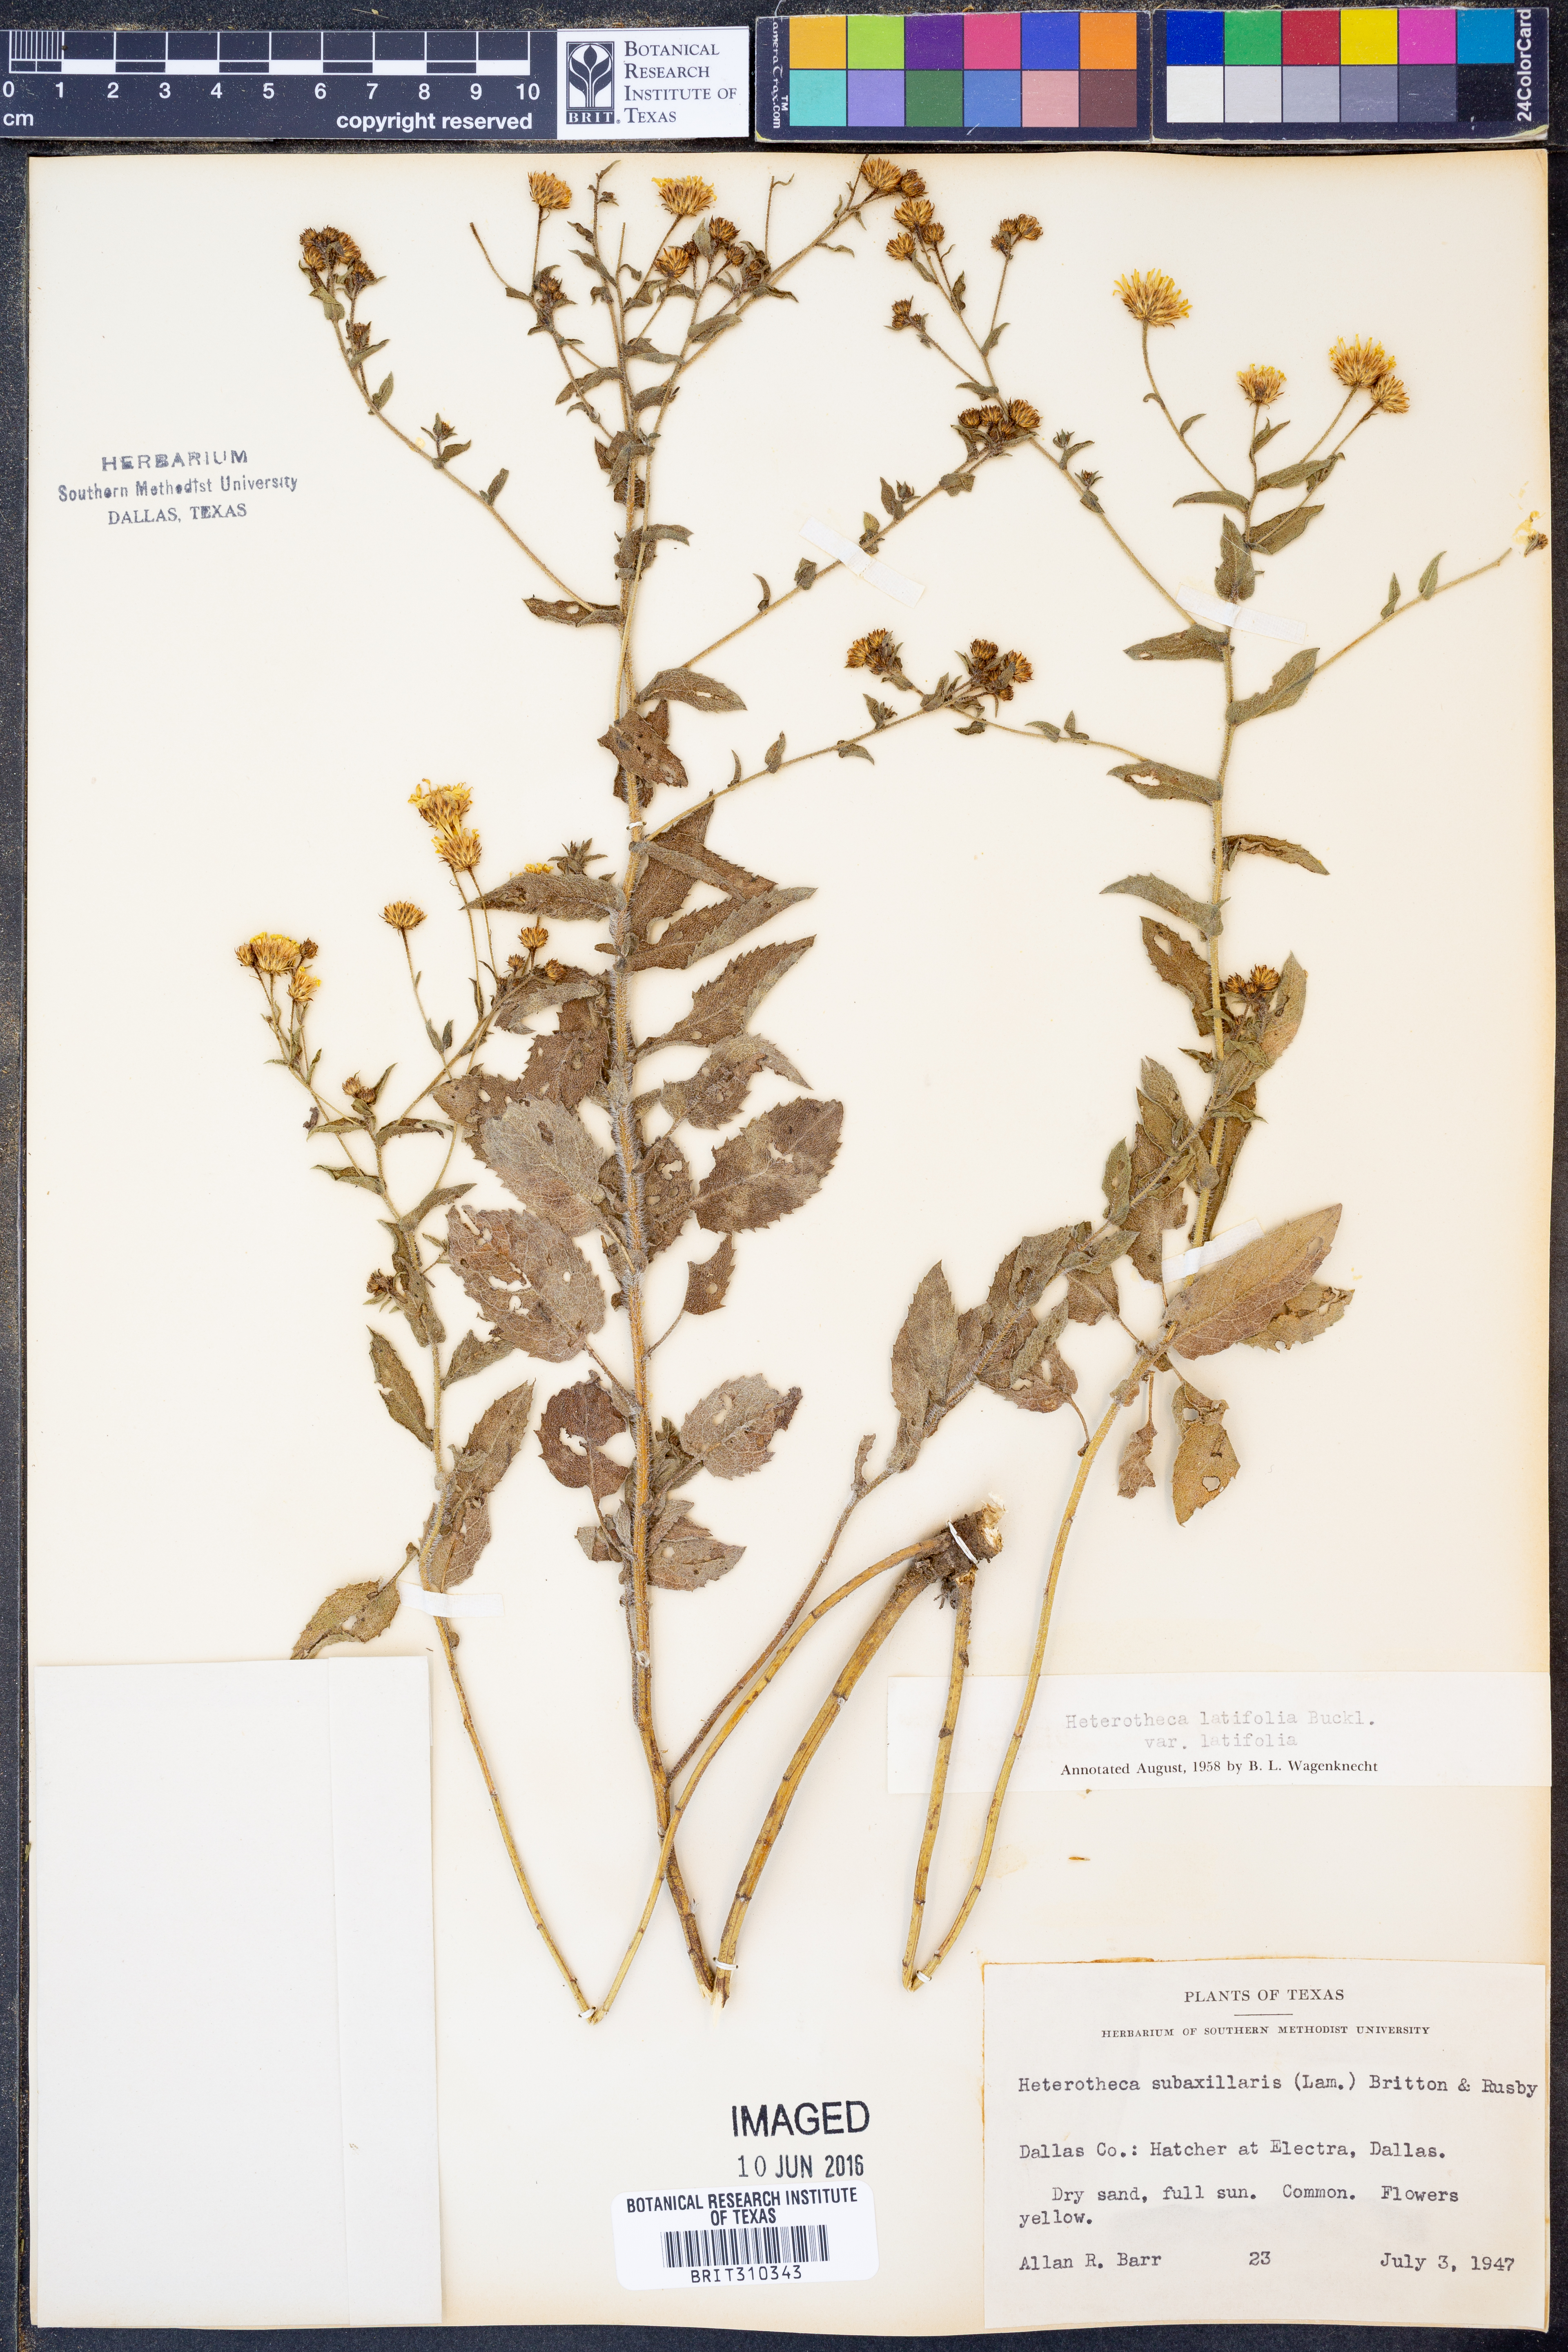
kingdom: Plantae
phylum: Tracheophyta
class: Magnoliopsida
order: Asterales
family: Asteraceae
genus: Heterotheca
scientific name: Heterotheca subaxillaris
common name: Camphorweed
